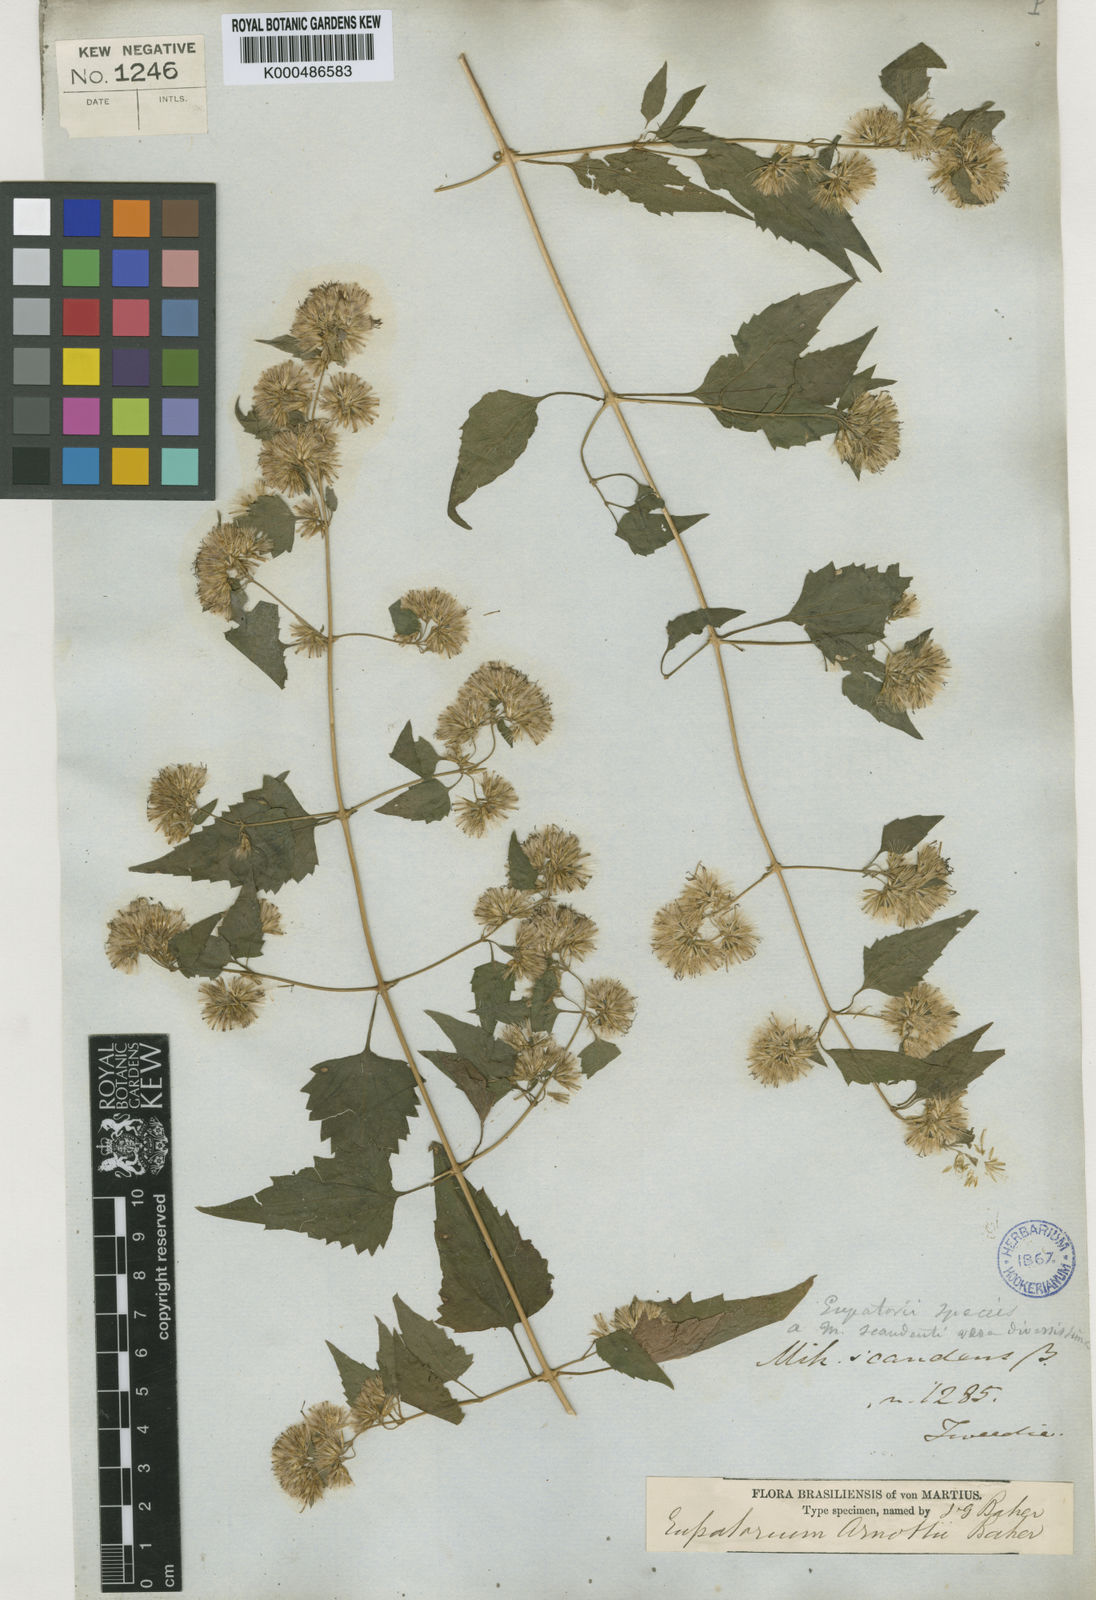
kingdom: Plantae
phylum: Tracheophyta
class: Magnoliopsida
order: Asterales
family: Asteraceae
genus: Austrobrickellia
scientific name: Austrobrickellia arnottii
